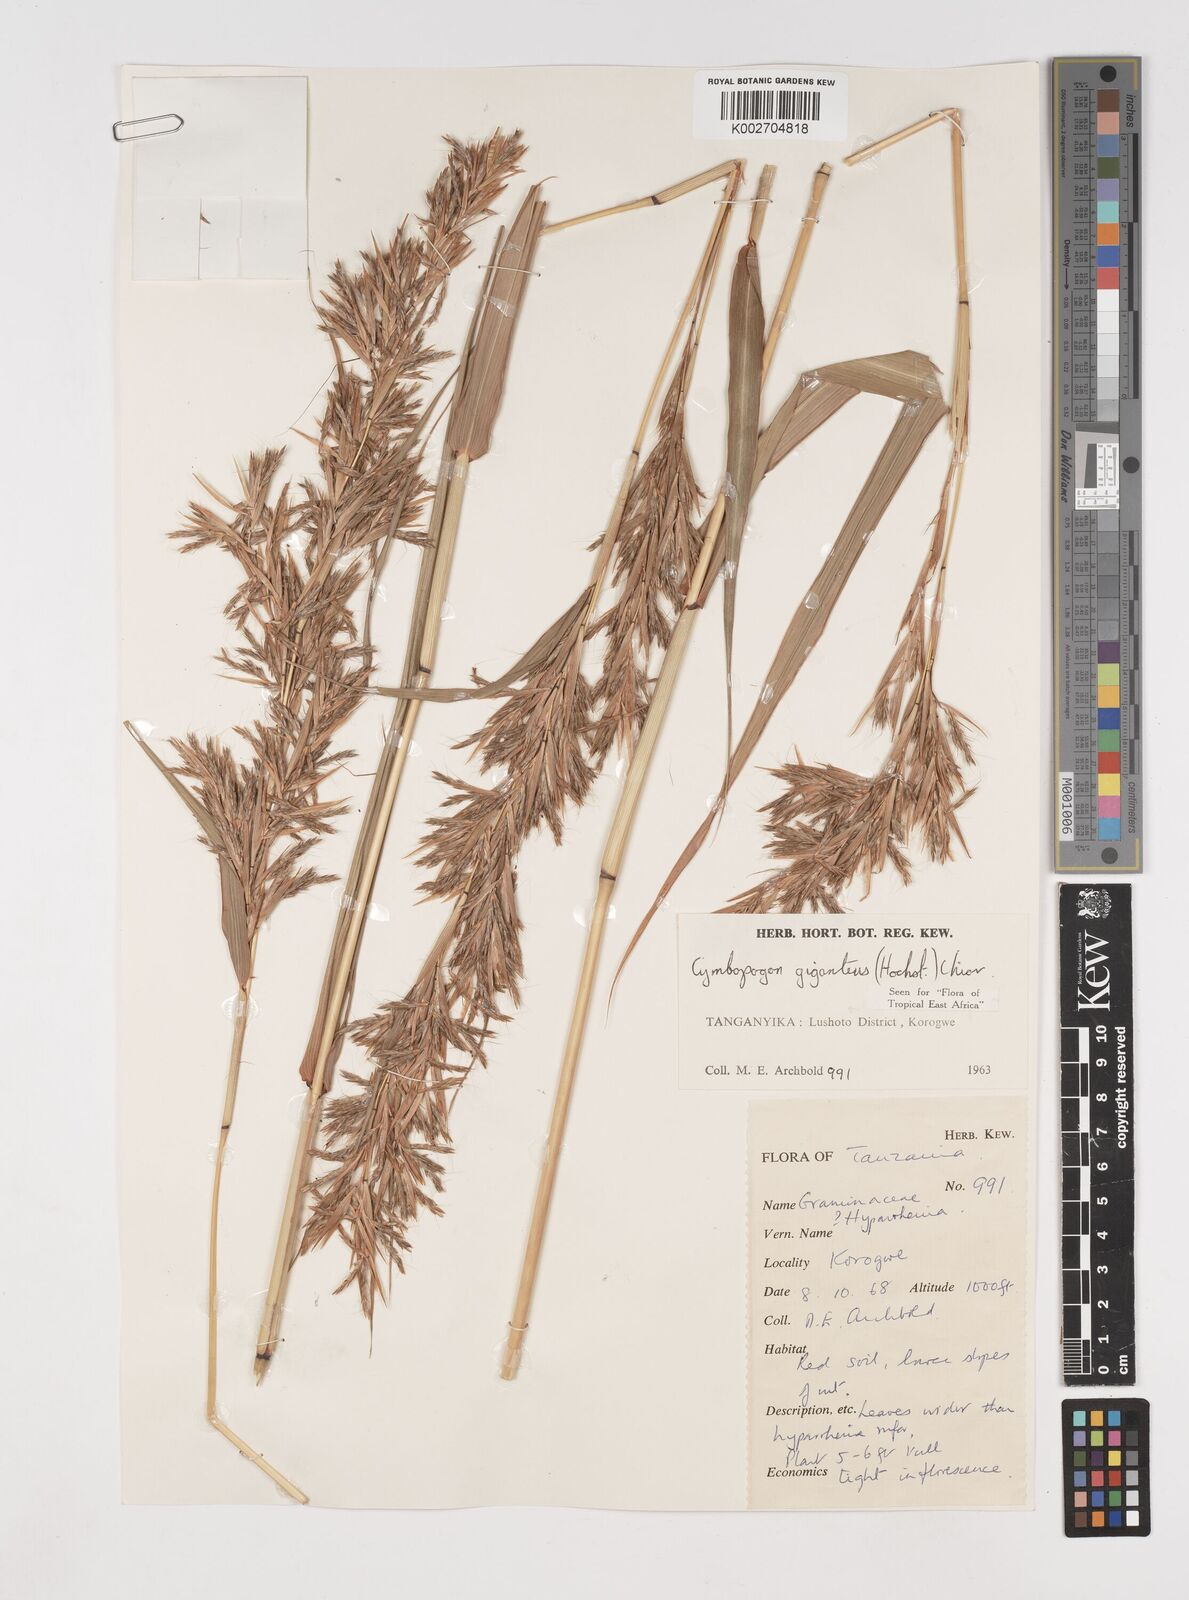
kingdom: Plantae
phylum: Tracheophyta
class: Liliopsida
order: Poales
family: Poaceae
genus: Cymbopogon
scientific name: Cymbopogon giganteus
